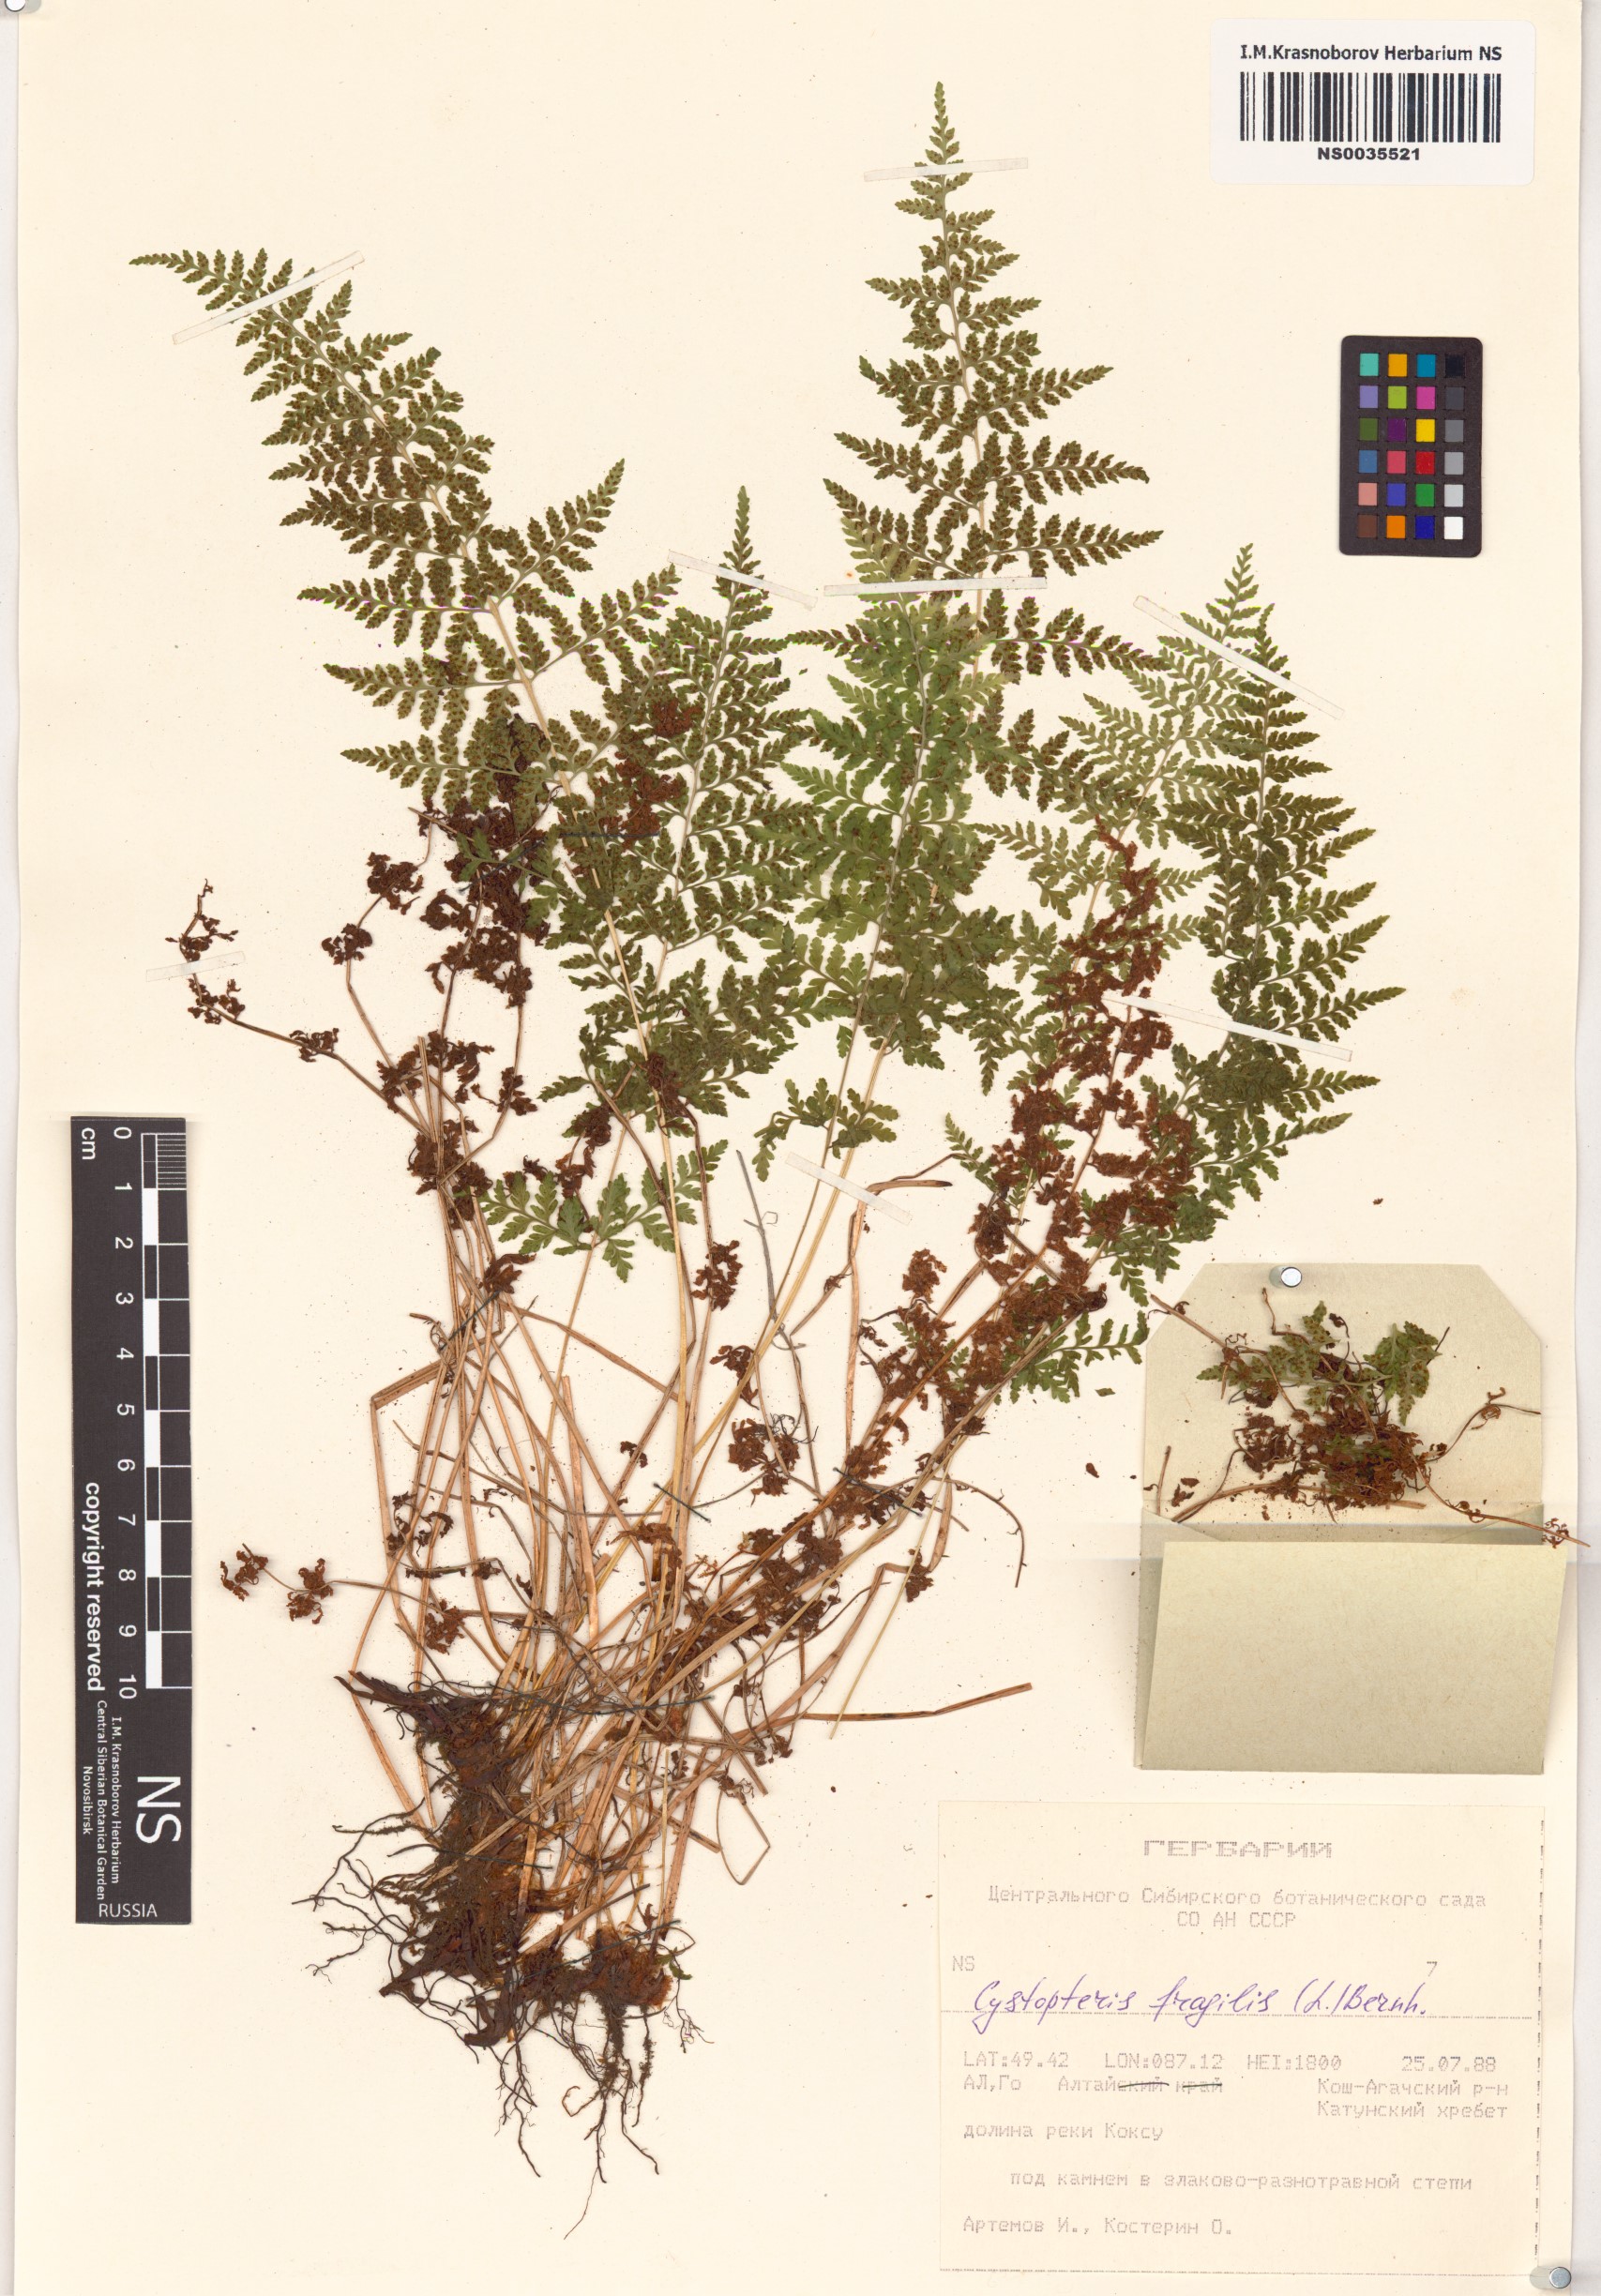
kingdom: Plantae
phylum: Tracheophyta
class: Polypodiopsida
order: Polypodiales
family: Cystopteridaceae
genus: Cystopteris
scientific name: Cystopteris fragilis
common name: Brittle bladder fern
